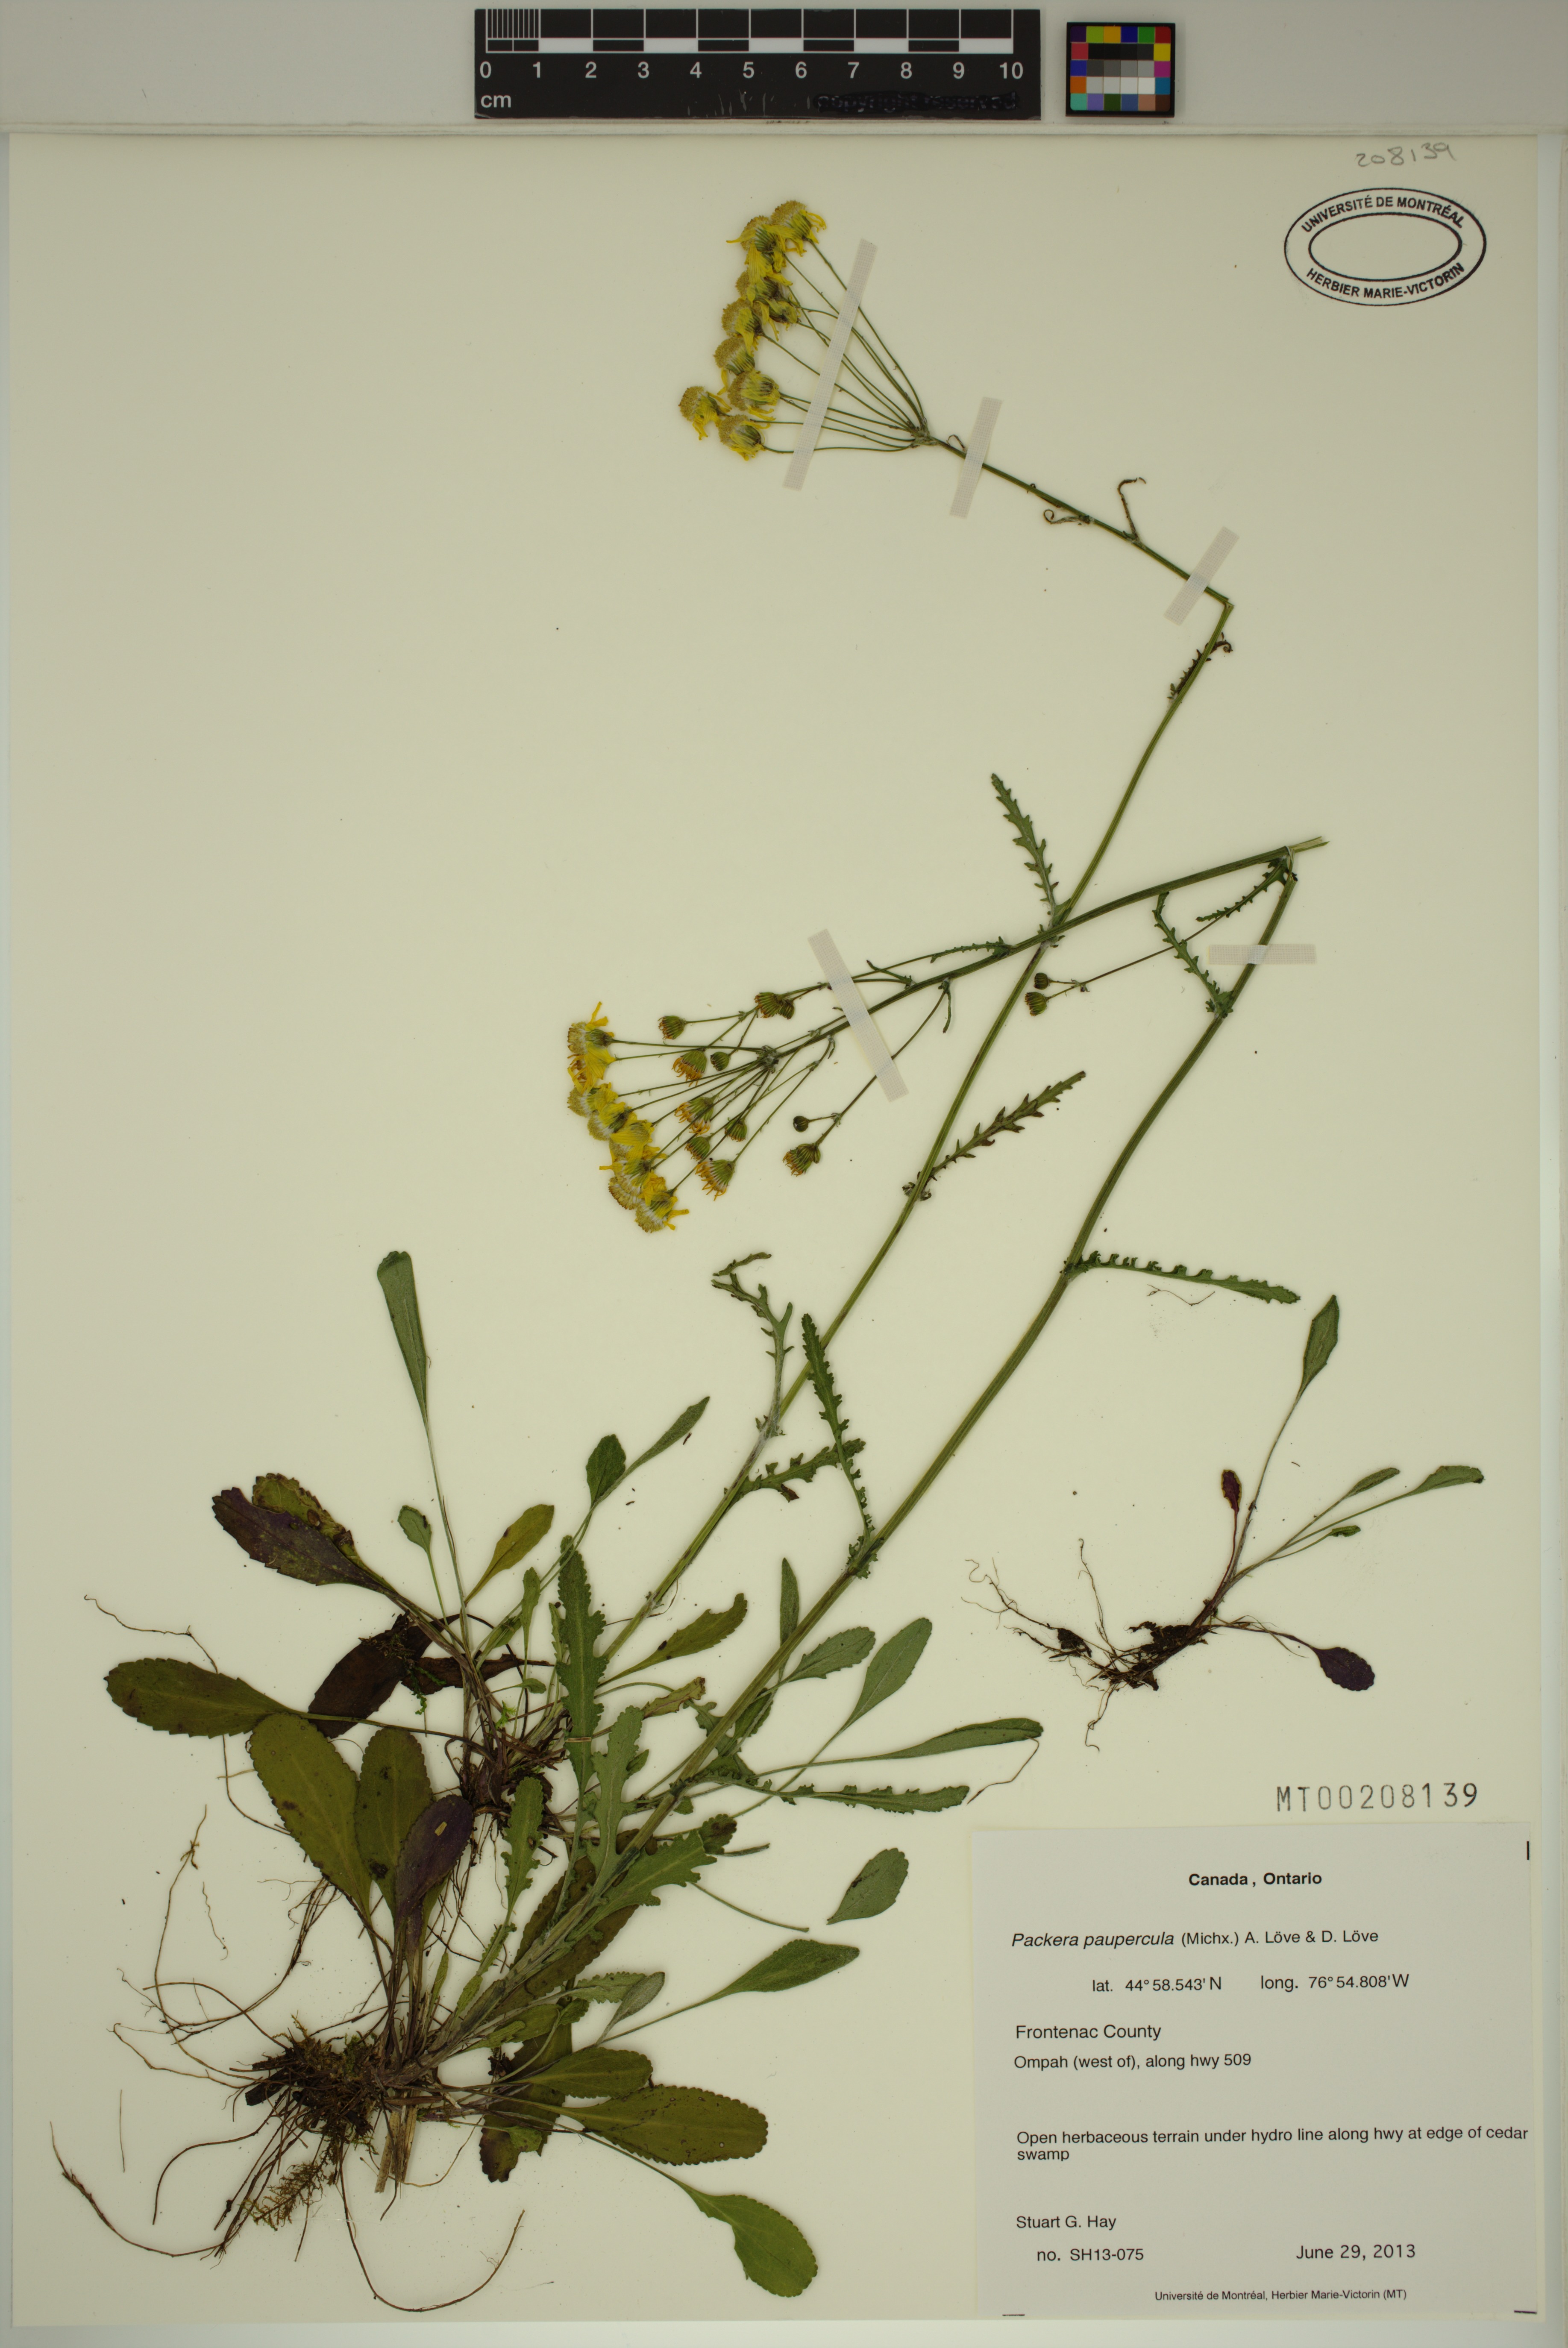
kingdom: Plantae
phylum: Tracheophyta
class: Magnoliopsida
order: Asterales
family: Asteraceae
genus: Packera
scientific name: Packera paupercula
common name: Balsam groundsel
